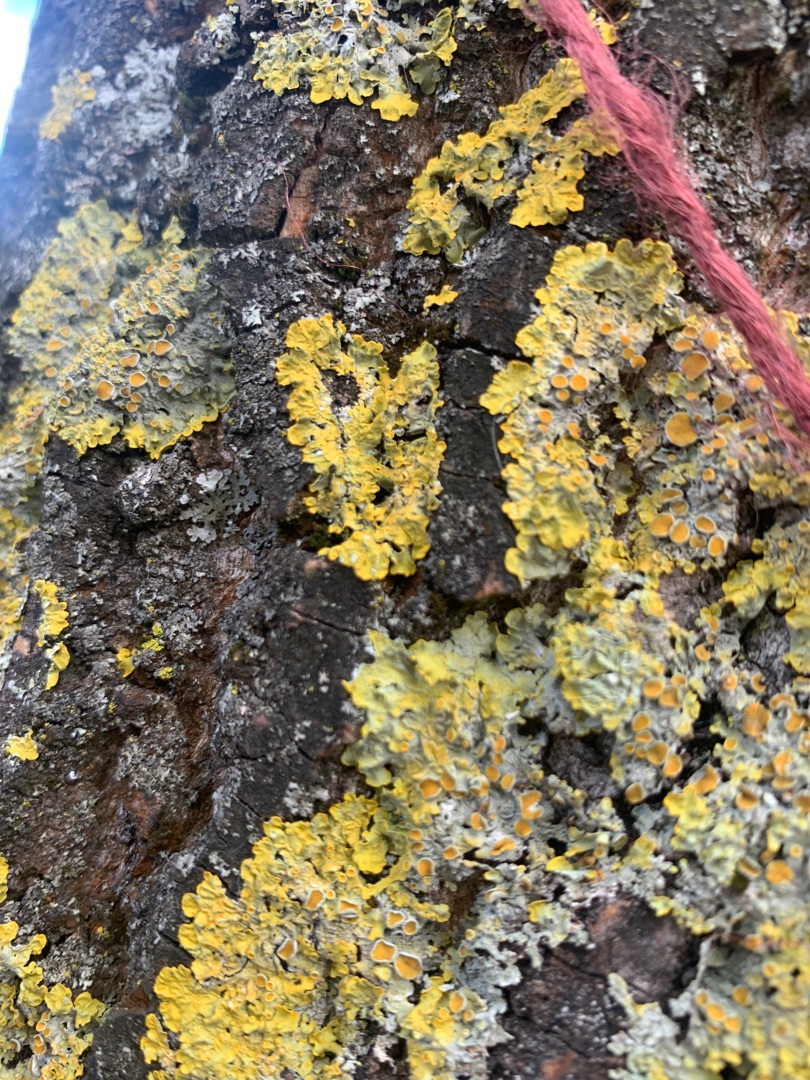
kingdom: Fungi
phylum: Ascomycota
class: Lecanoromycetes
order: Teloschistales
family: Teloschistaceae
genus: Xanthoria
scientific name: Xanthoria parietina
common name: Almindelig væggelav
